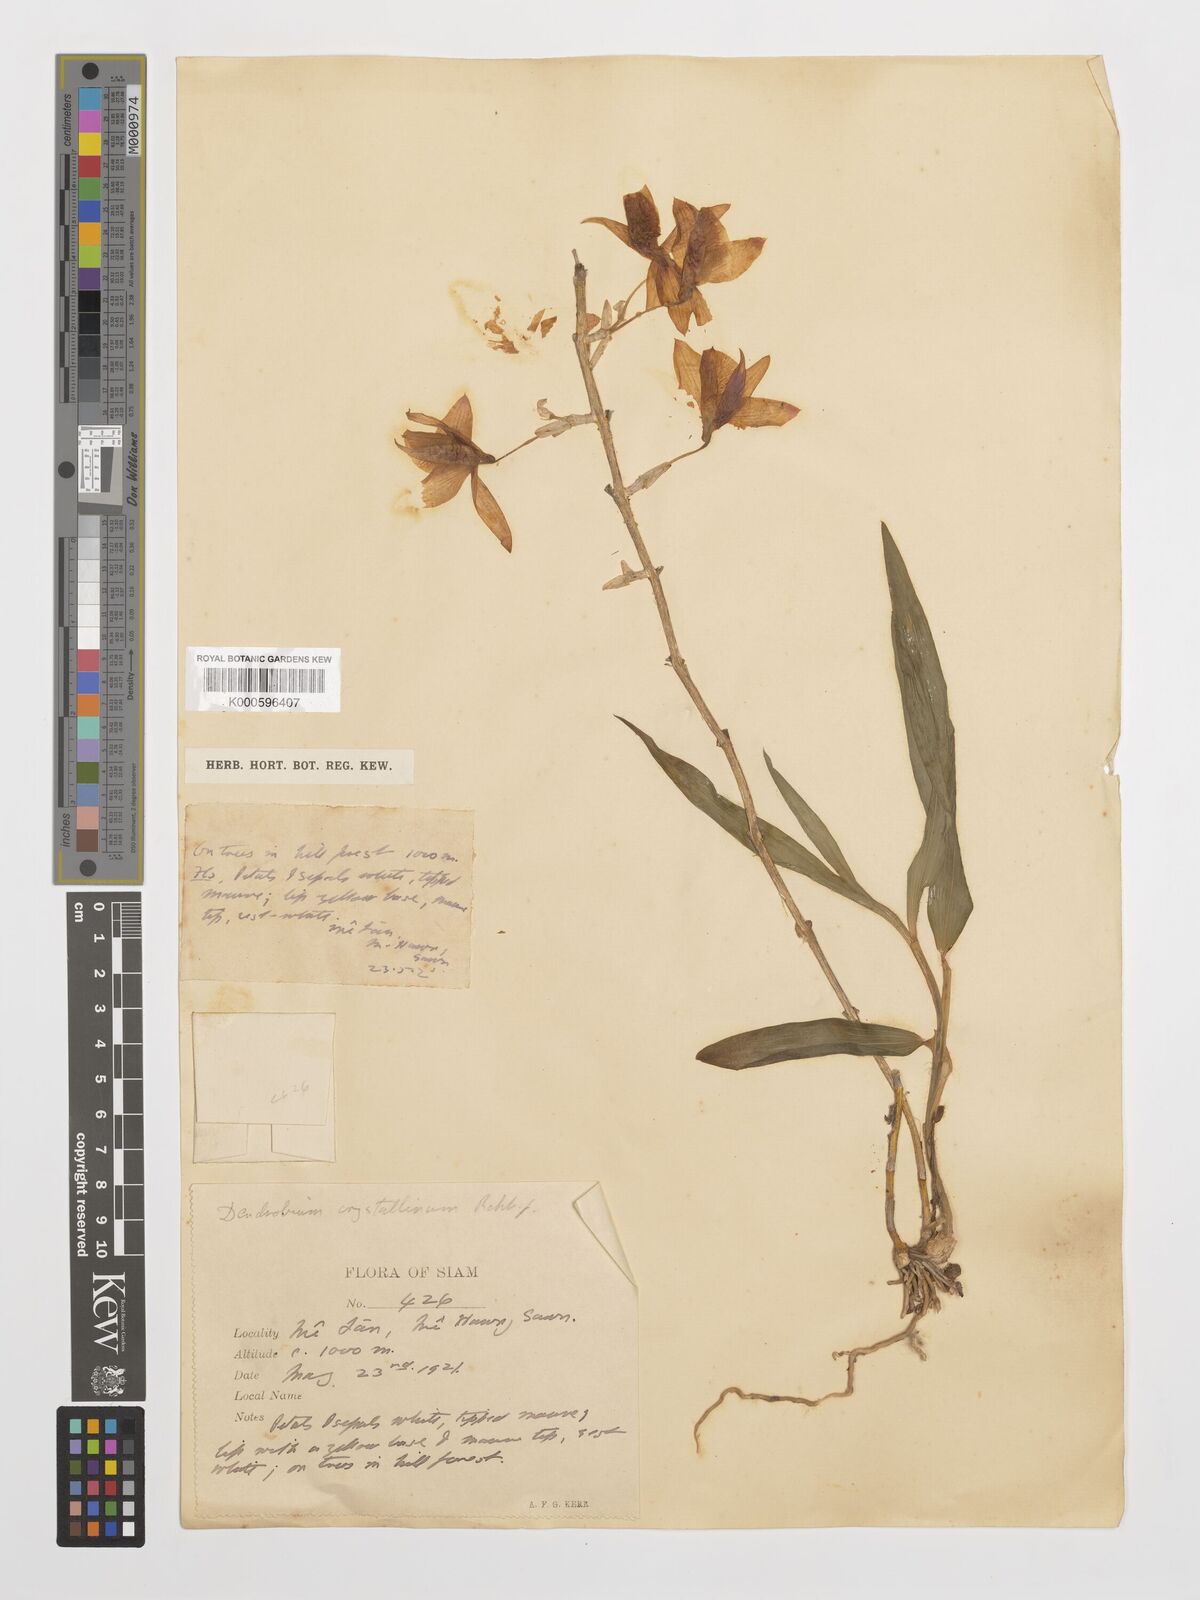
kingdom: Plantae
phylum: Tracheophyta
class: Liliopsida
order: Asparagales
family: Orchidaceae
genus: Dendrobium
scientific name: Dendrobium crystallinum
